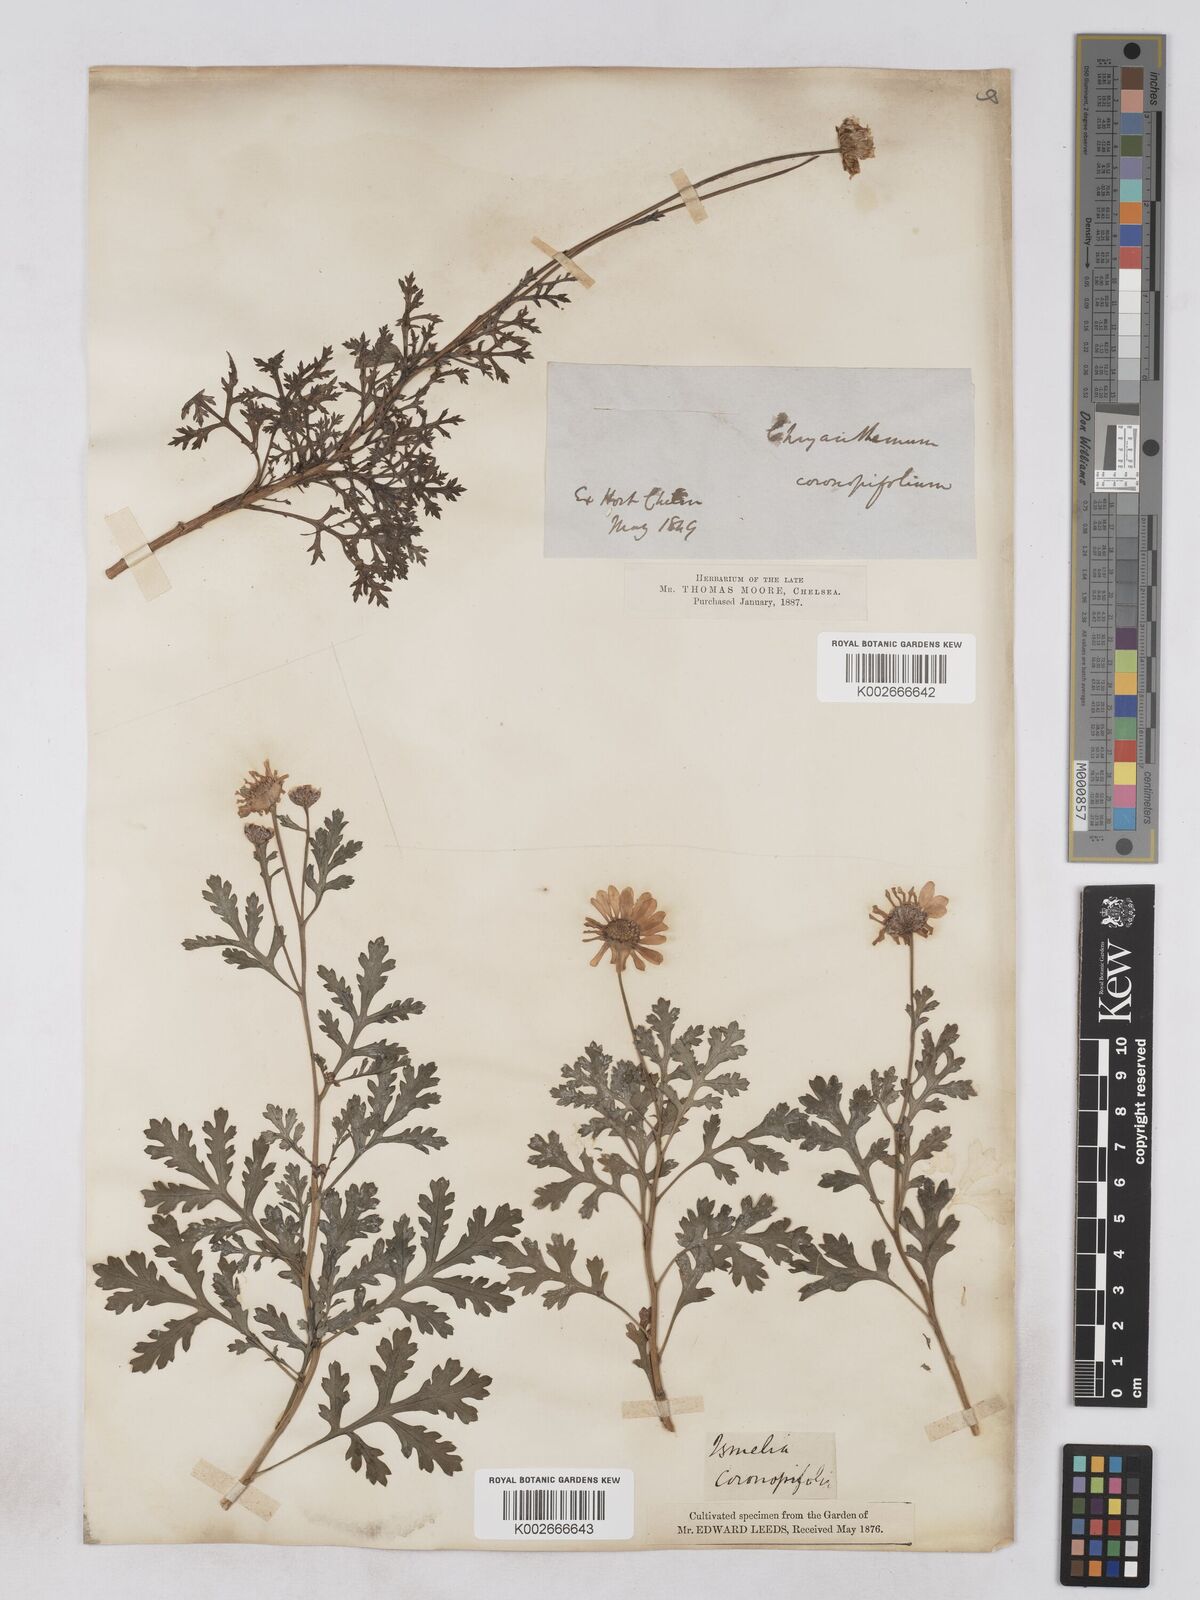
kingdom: Plantae
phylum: Tracheophyta
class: Magnoliopsida
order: Asterales
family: Asteraceae
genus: Argyranthemum
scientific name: Argyranthemum
